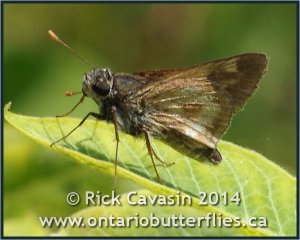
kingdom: Animalia
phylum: Arthropoda
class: Insecta
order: Lepidoptera
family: Hesperiidae
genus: Polites
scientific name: Polites
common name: Long Dash Skipper
